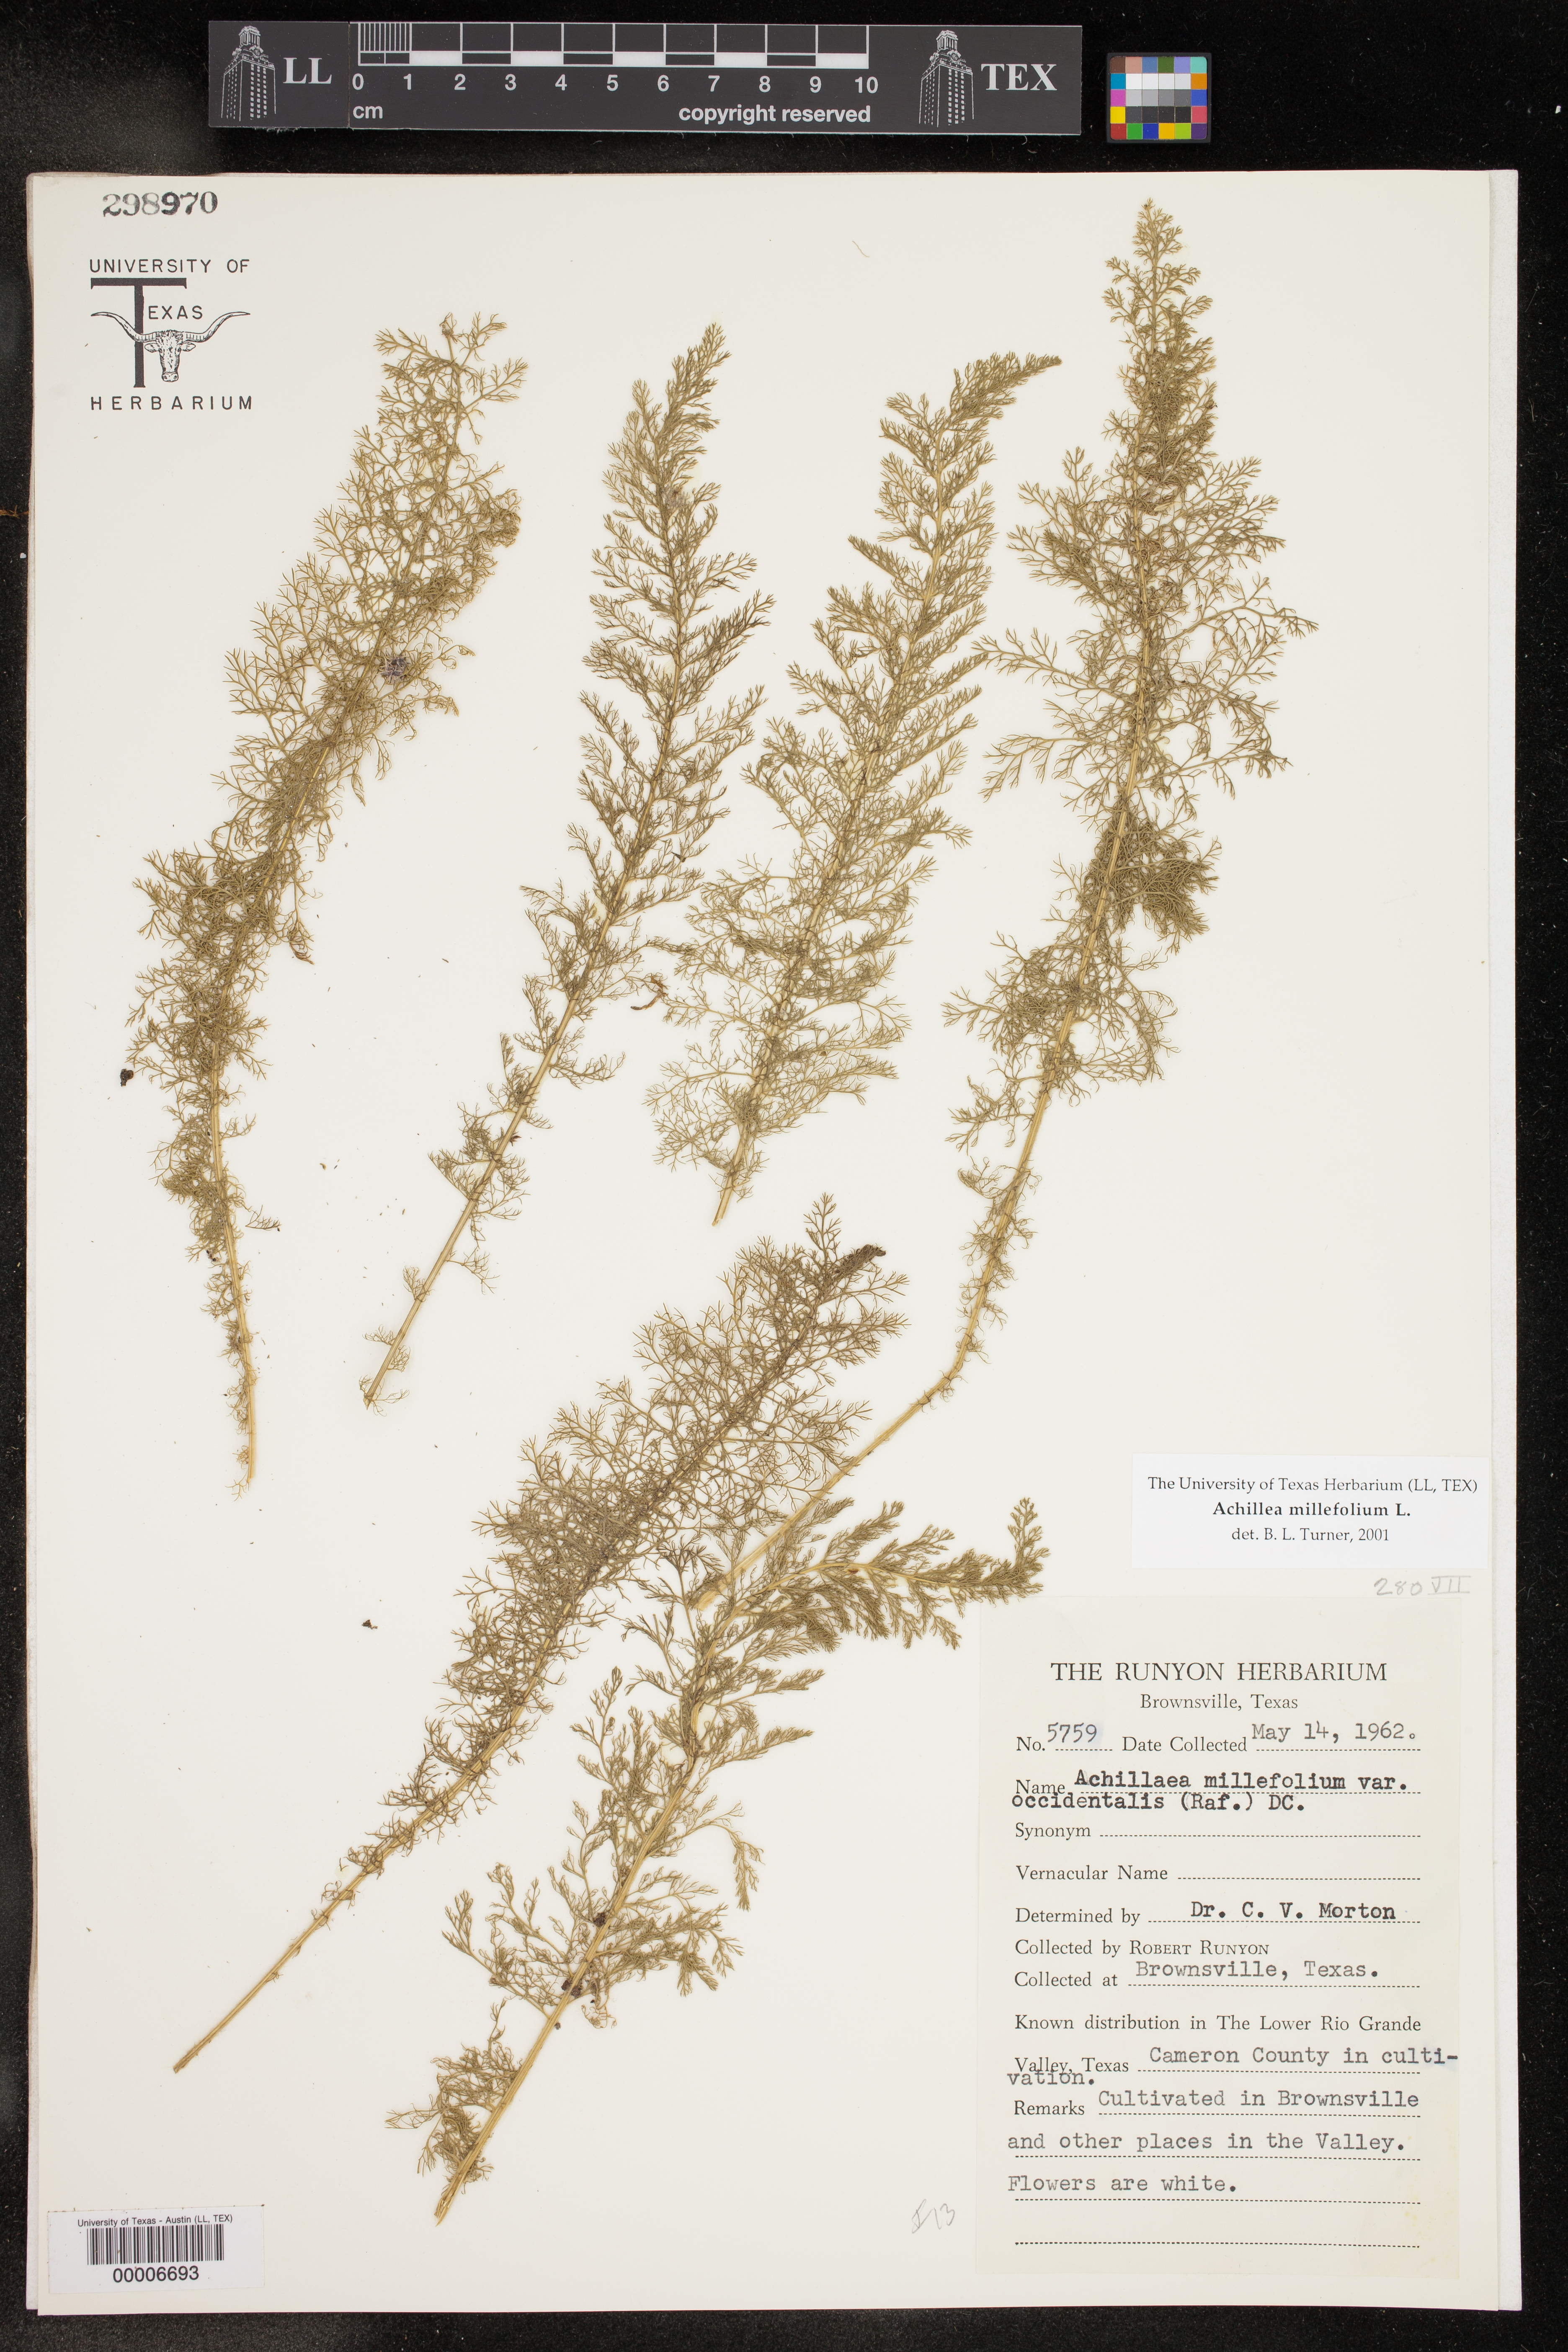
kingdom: Plantae
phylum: Tracheophyta
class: Magnoliopsida
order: Asterales
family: Asteraceae
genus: Achillea
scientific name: Achillea millefolium
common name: Yarrow
